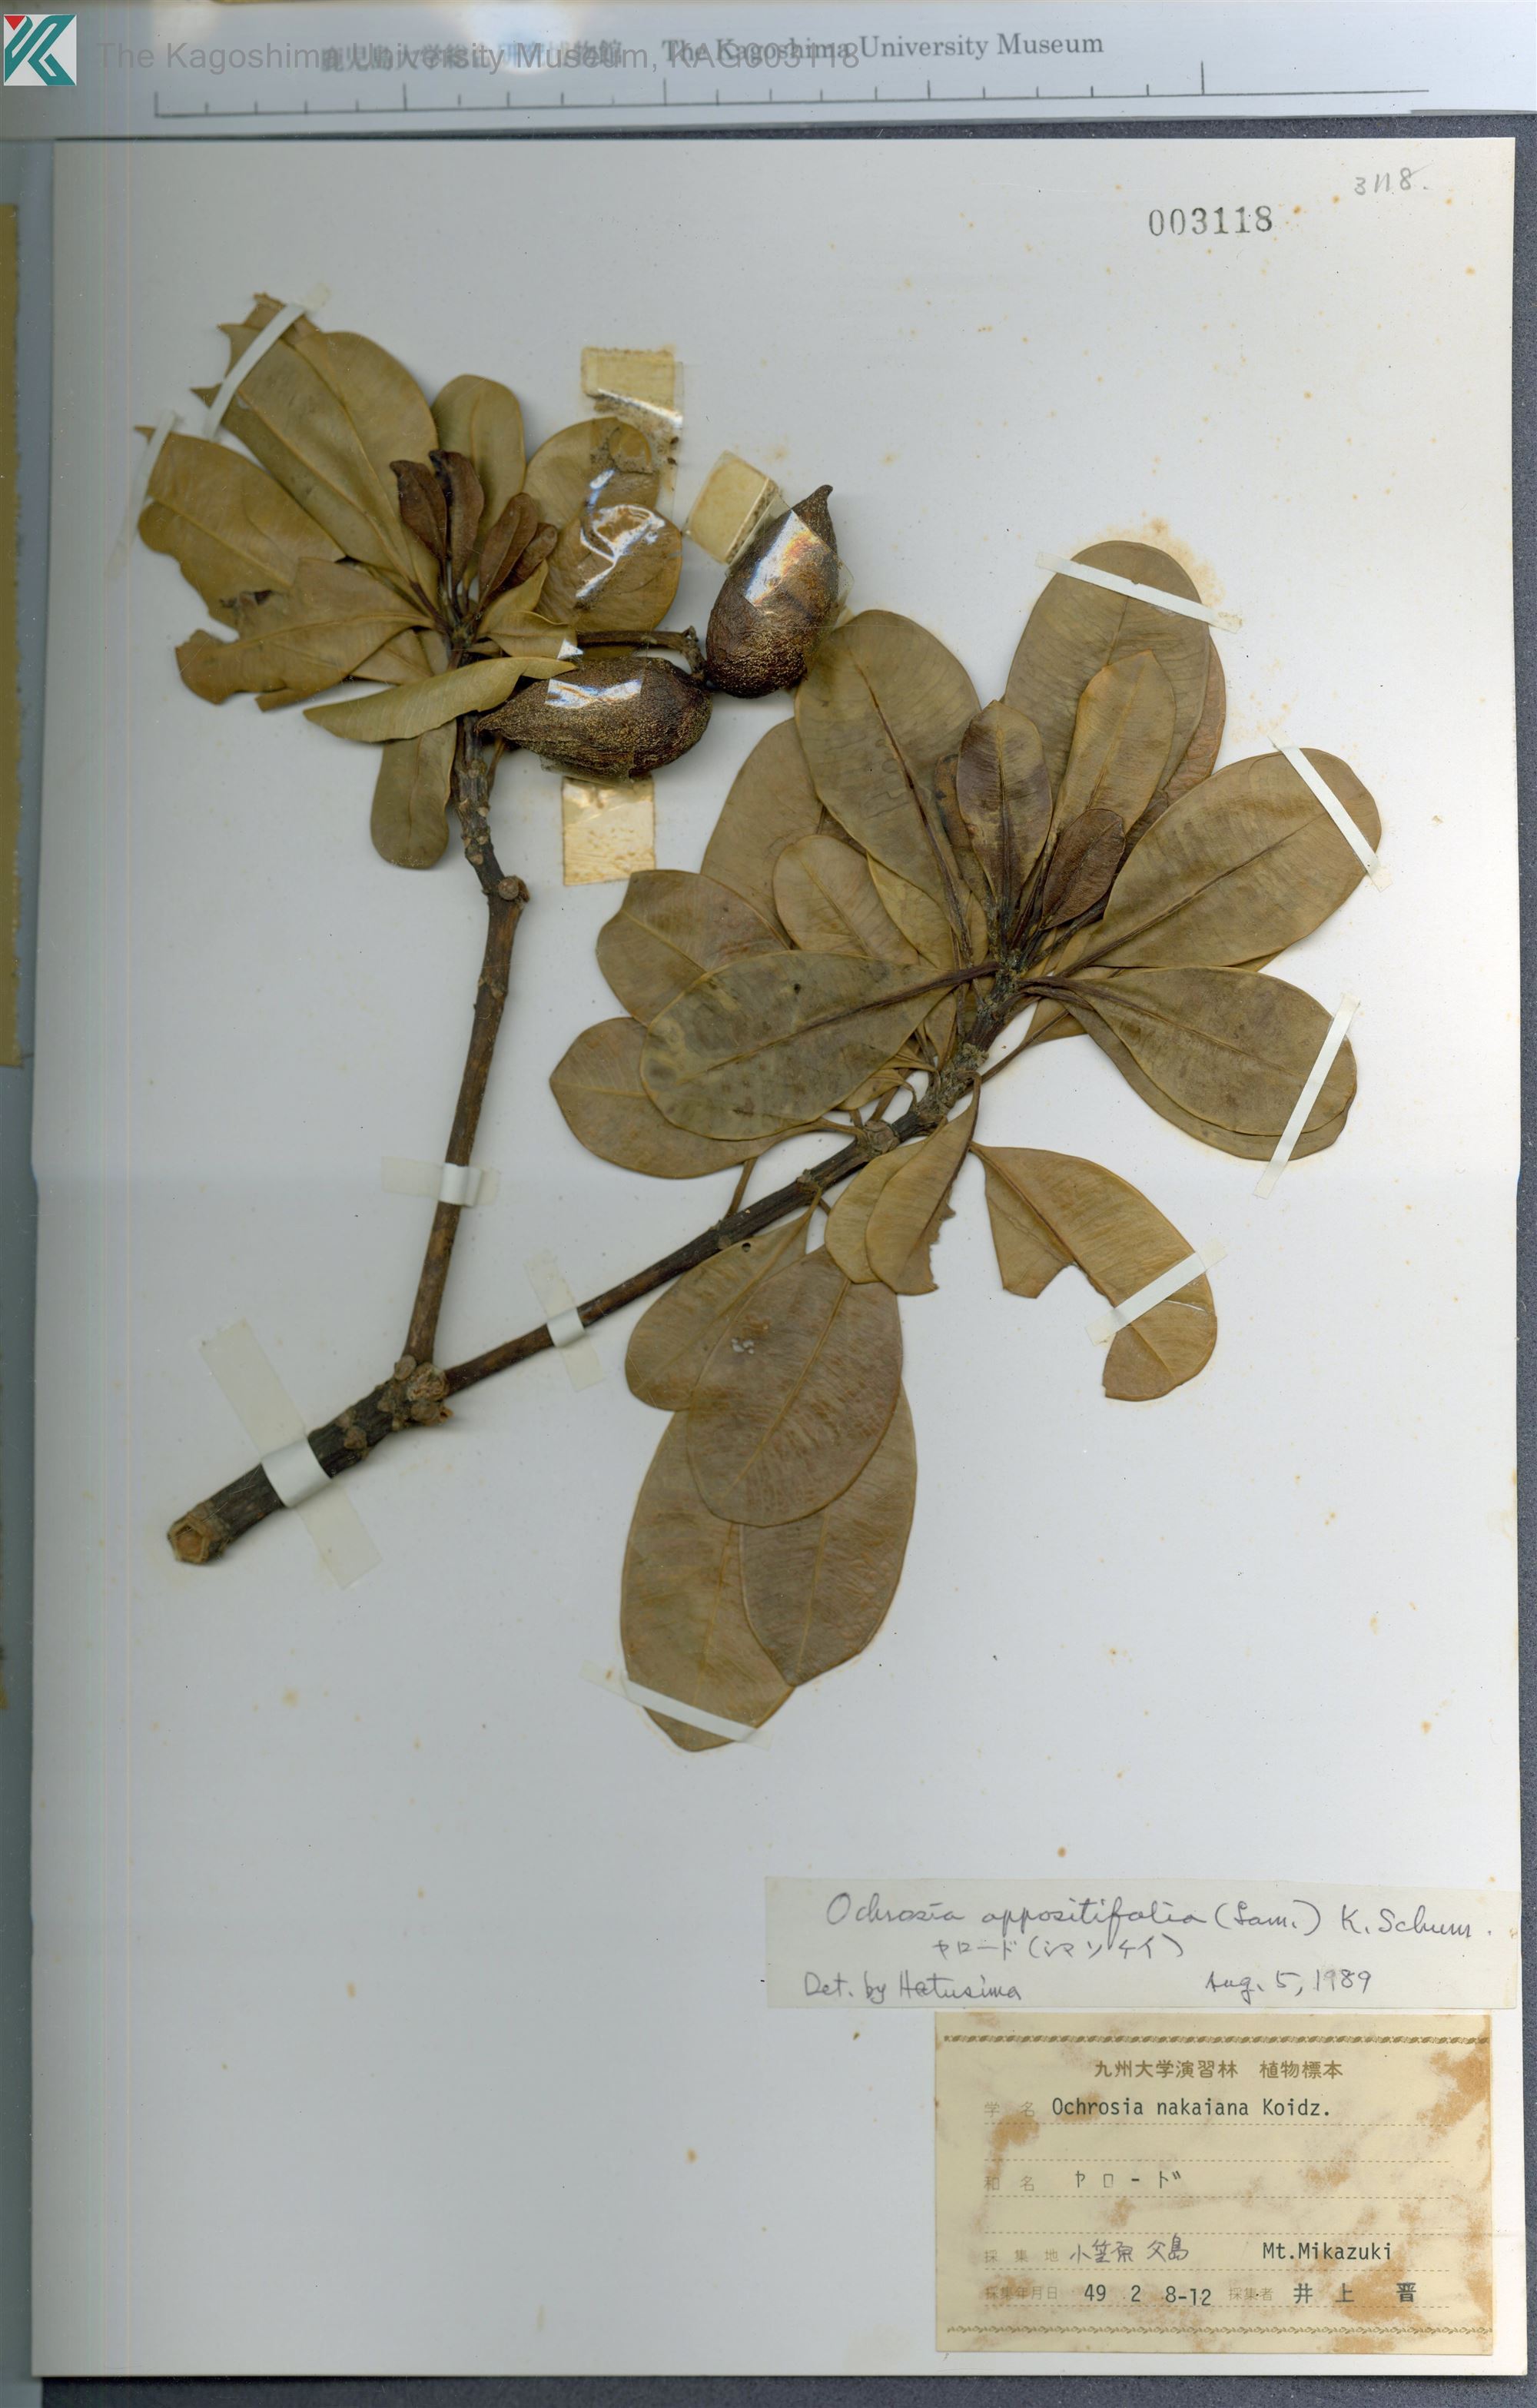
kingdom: Plantae
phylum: Tracheophyta
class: Magnoliopsida
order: Gentianales
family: Apocynaceae
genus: Ochrosia
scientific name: Ochrosia oppositifolia
